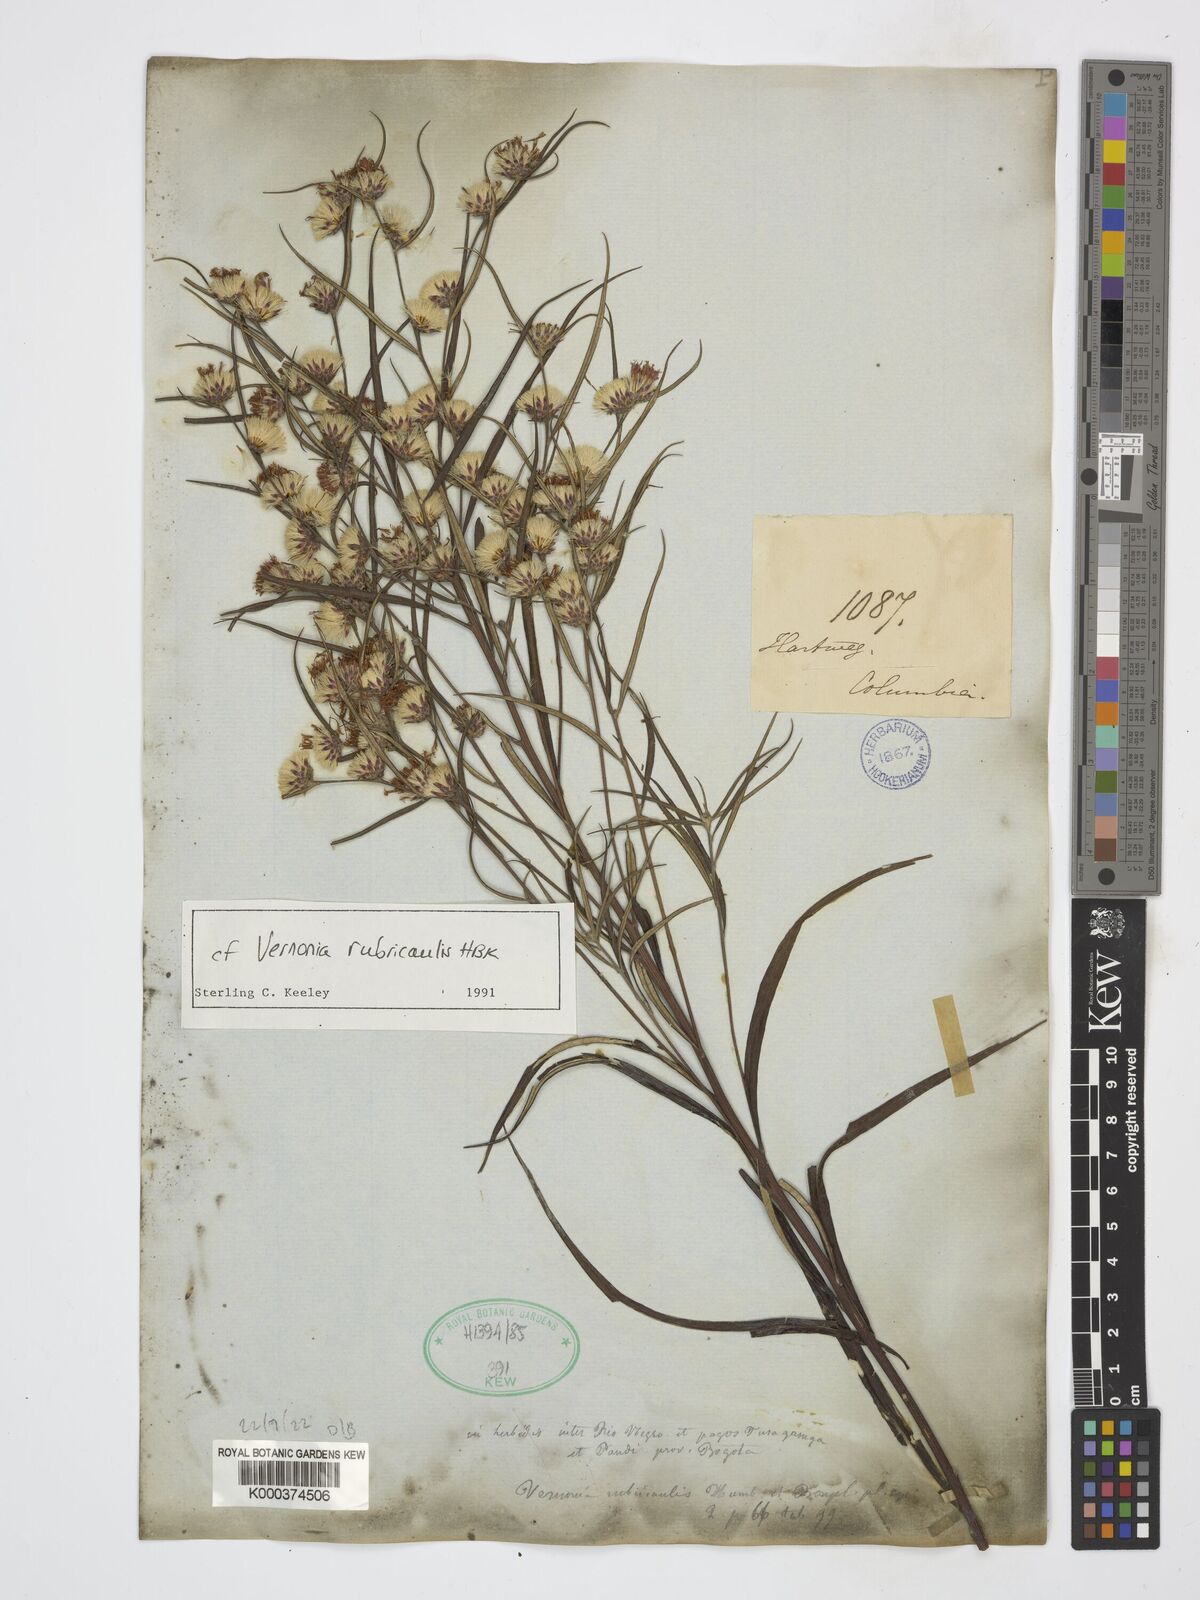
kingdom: Plantae
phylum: Tracheophyta
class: Magnoliopsida
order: Asterales
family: Asteraceae
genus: Lessingianthus
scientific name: Lessingianthus rubricaulis
